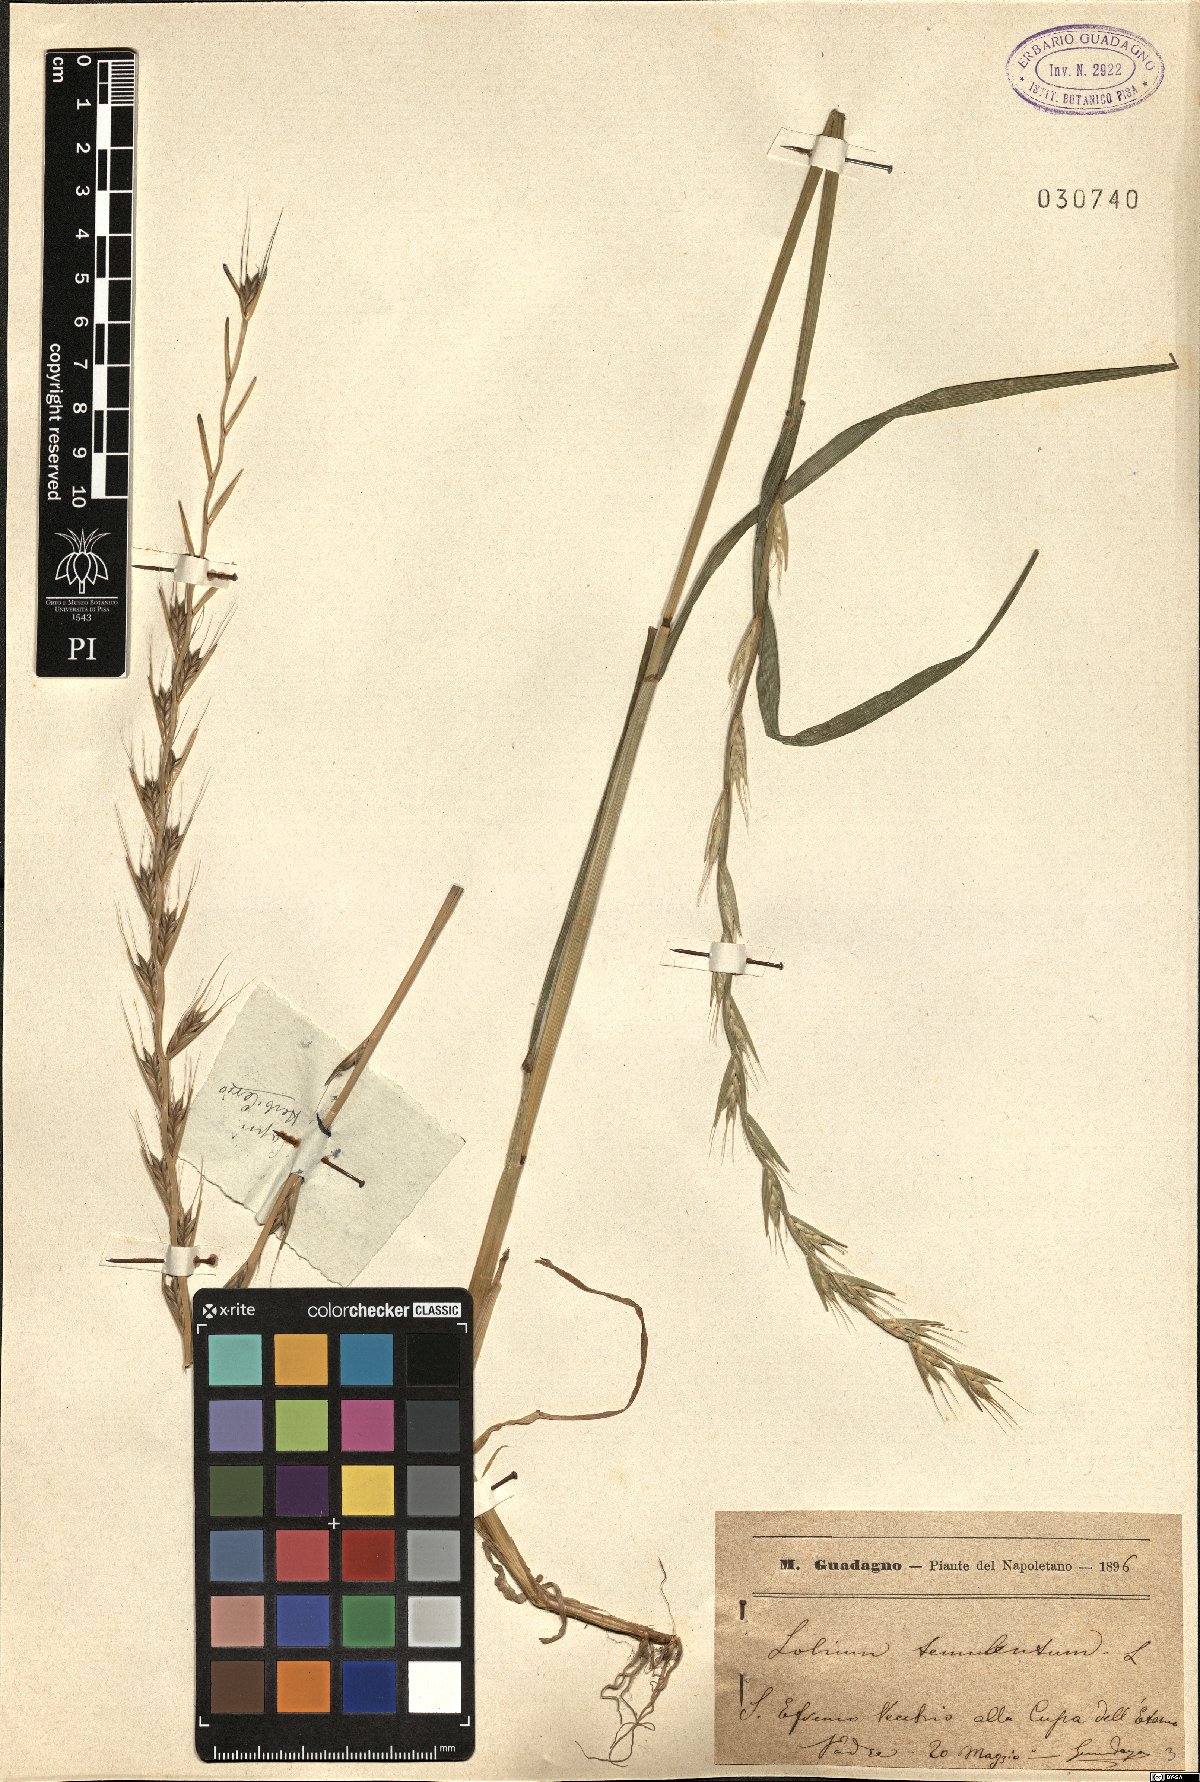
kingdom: Plantae
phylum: Tracheophyta
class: Liliopsida
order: Poales
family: Poaceae
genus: Lolium
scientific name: Lolium temulentum
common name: Darnel
